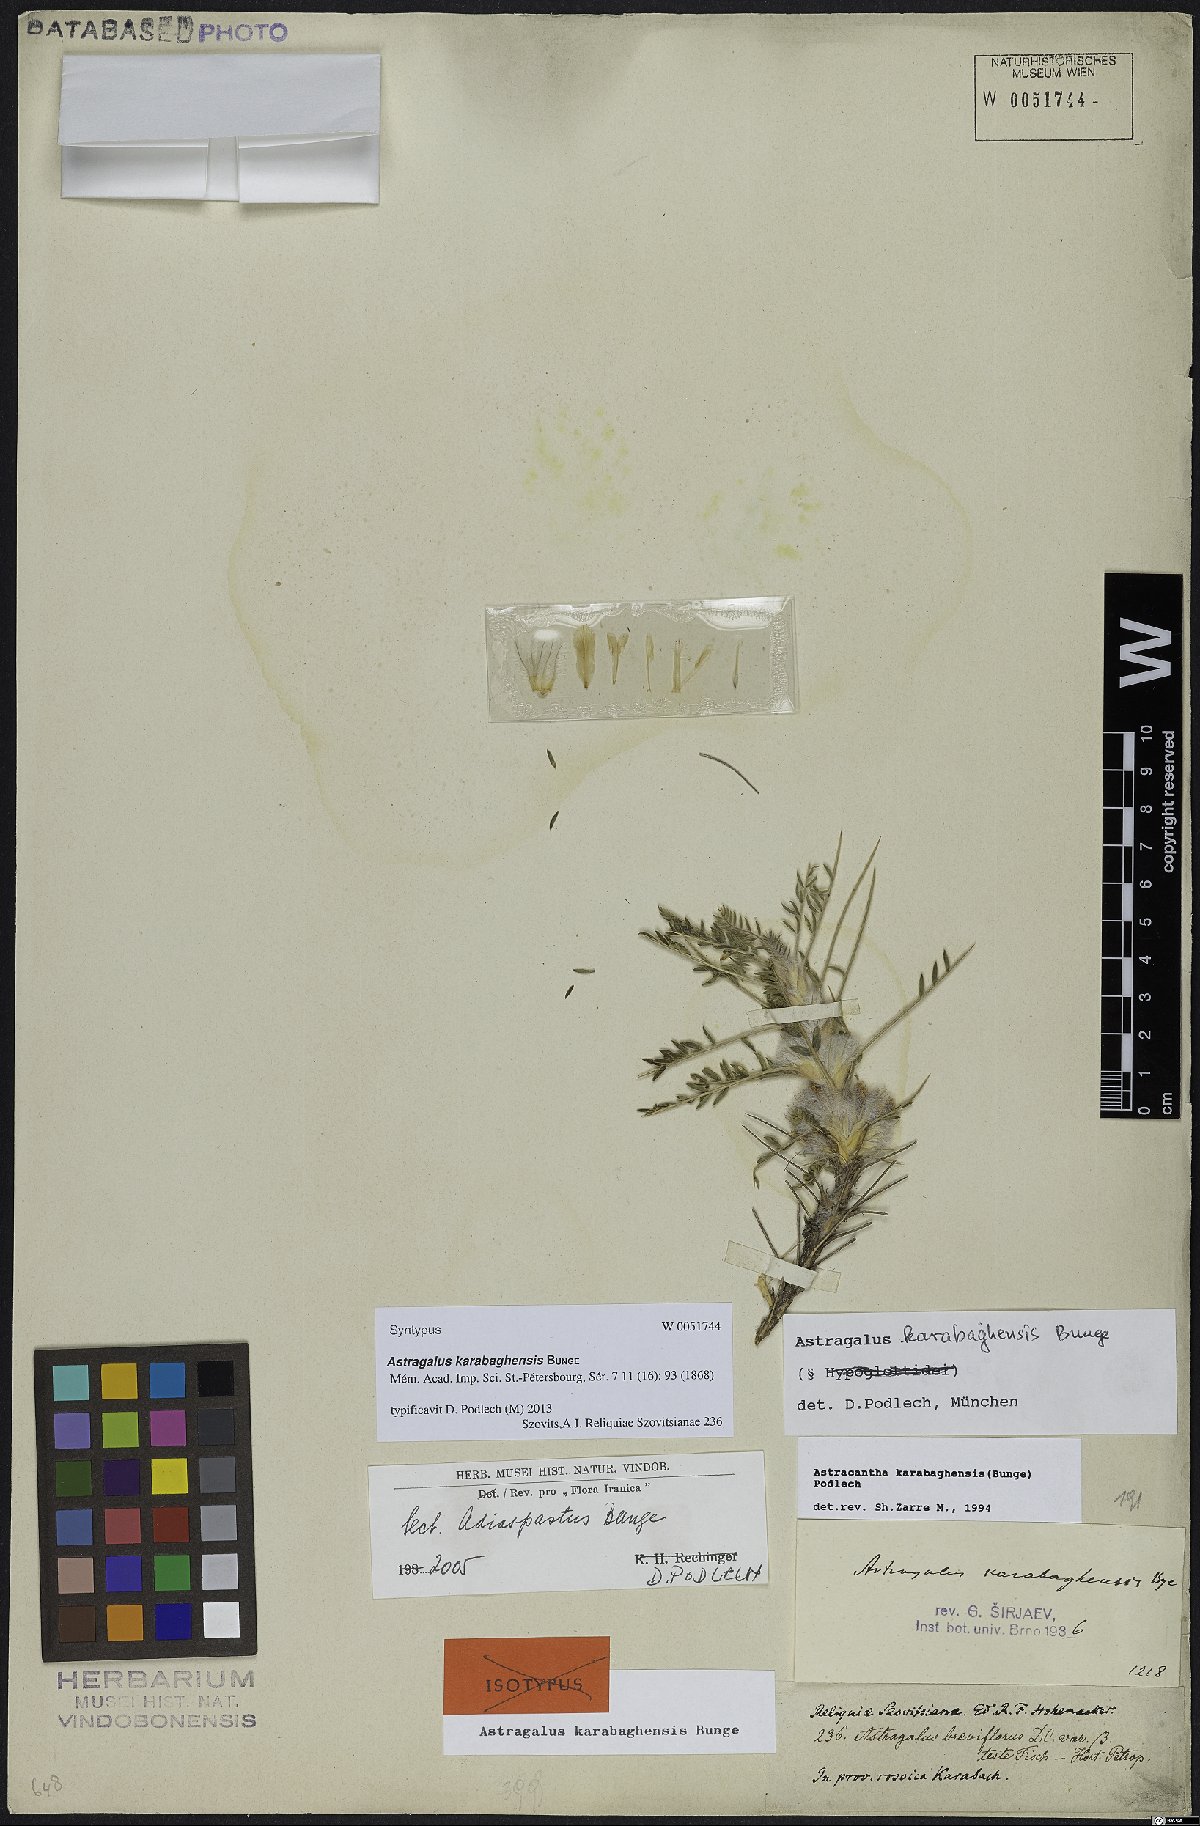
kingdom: Plantae
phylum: Tracheophyta
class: Magnoliopsida
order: Fabales
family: Fabaceae
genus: Astragalus
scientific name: Astragalus karabaghensis
